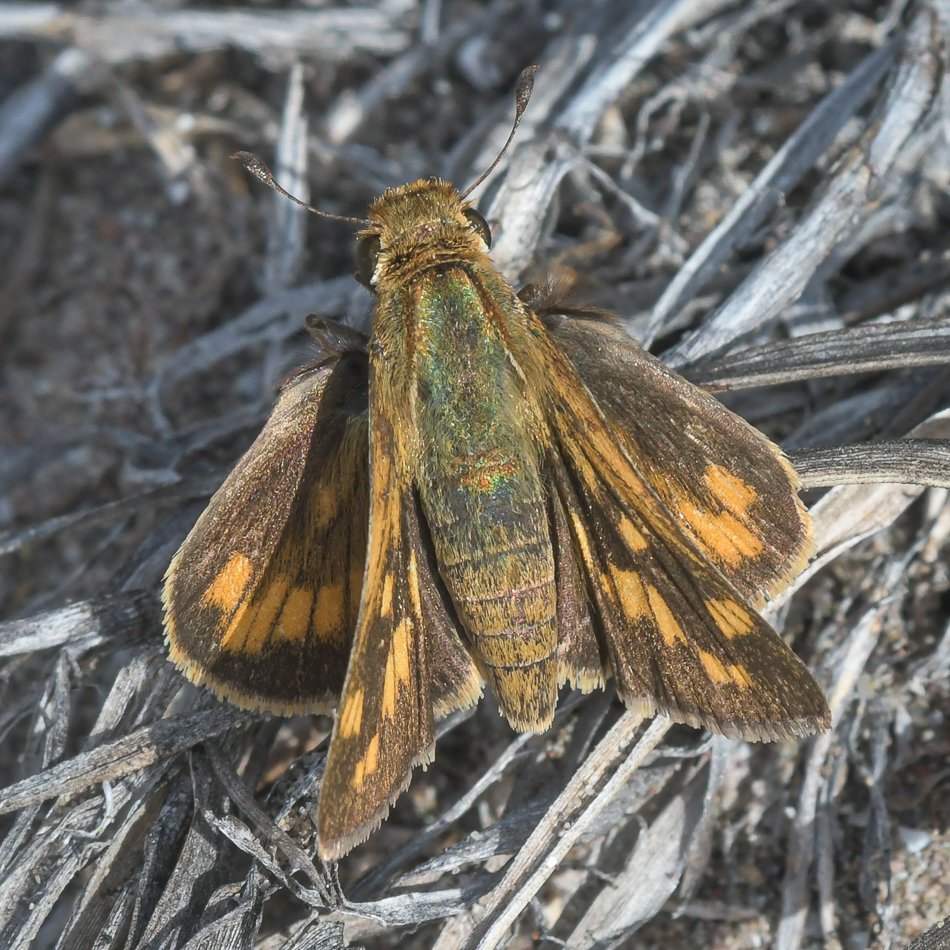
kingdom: Animalia
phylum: Arthropoda
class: Insecta
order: Lepidoptera
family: Hesperiidae
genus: Hylephila
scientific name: Hylephila phyleus
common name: Fiery Skipper
